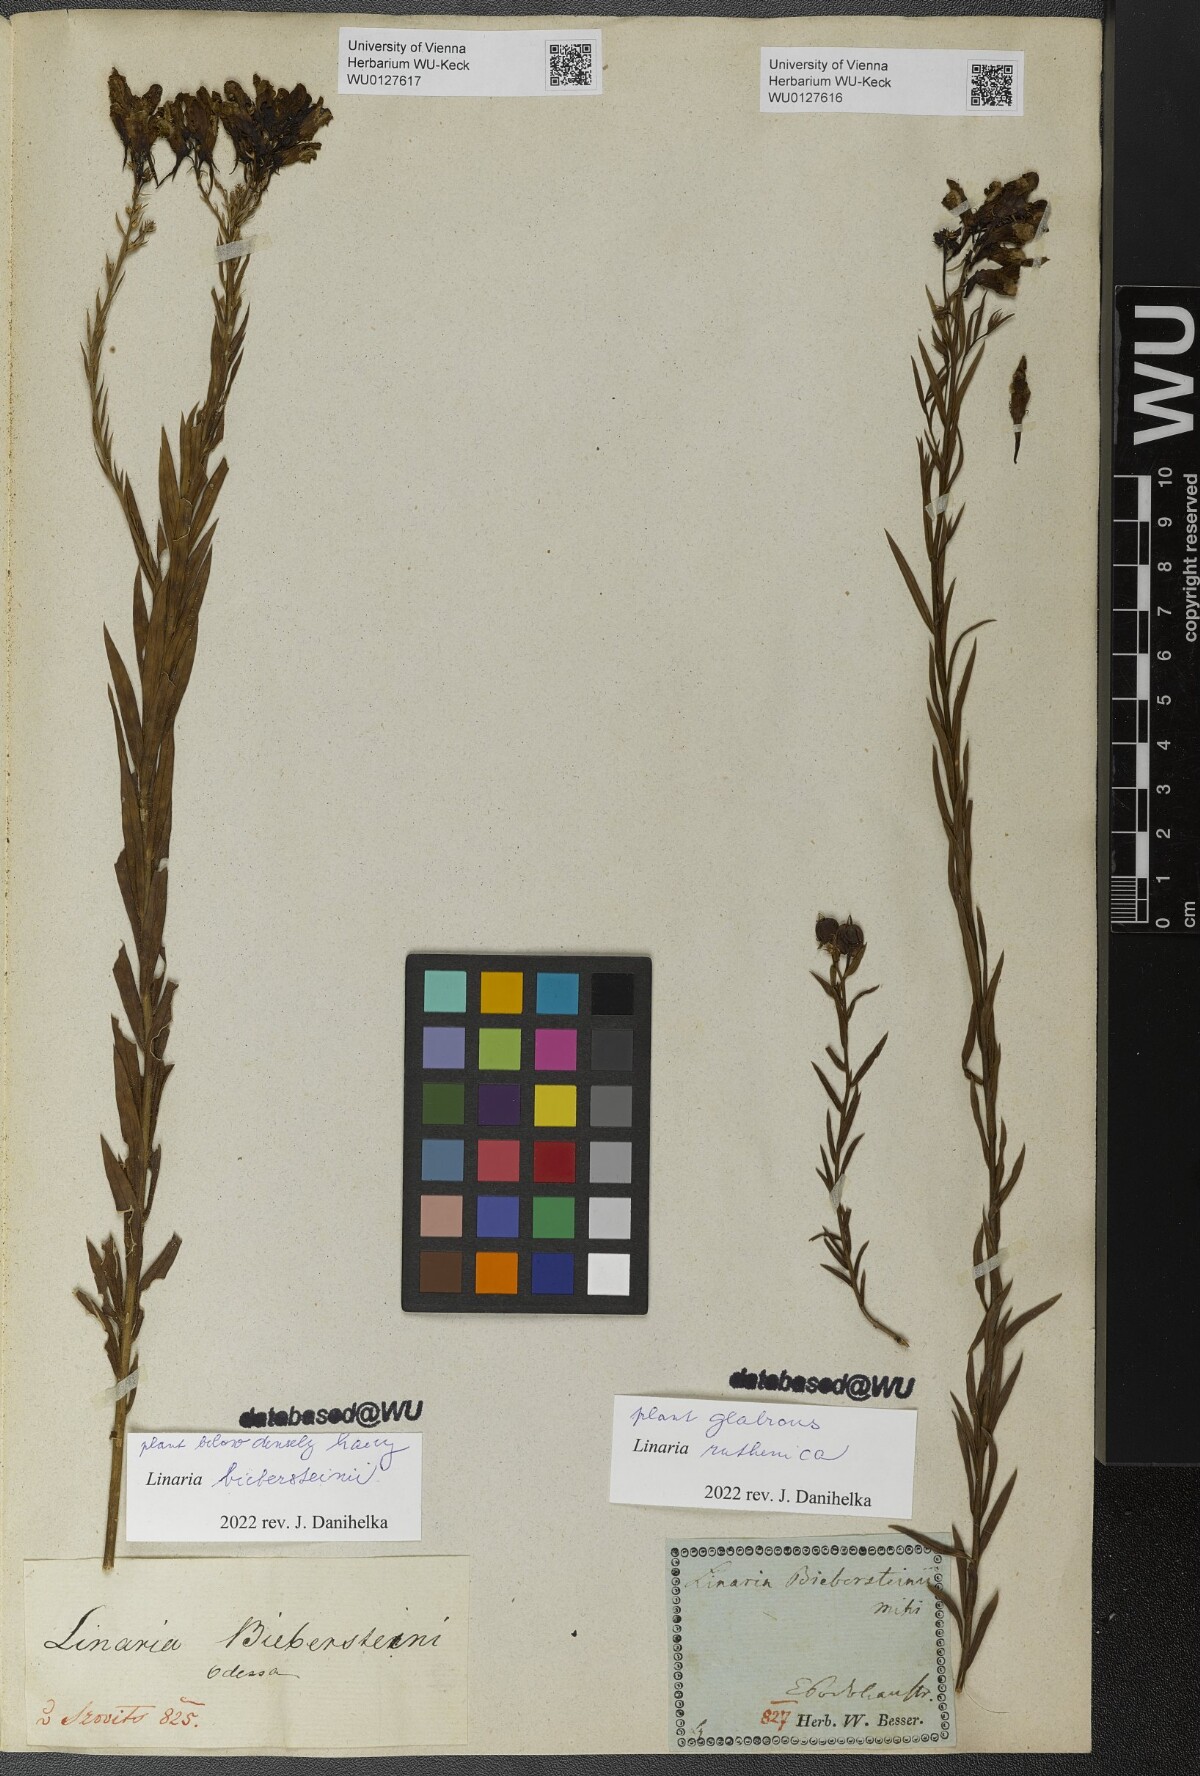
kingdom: Plantae
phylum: Tracheophyta
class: Magnoliopsida
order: Lamiales
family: Plantaginaceae
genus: Linaria
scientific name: Linaria biebersteinii
